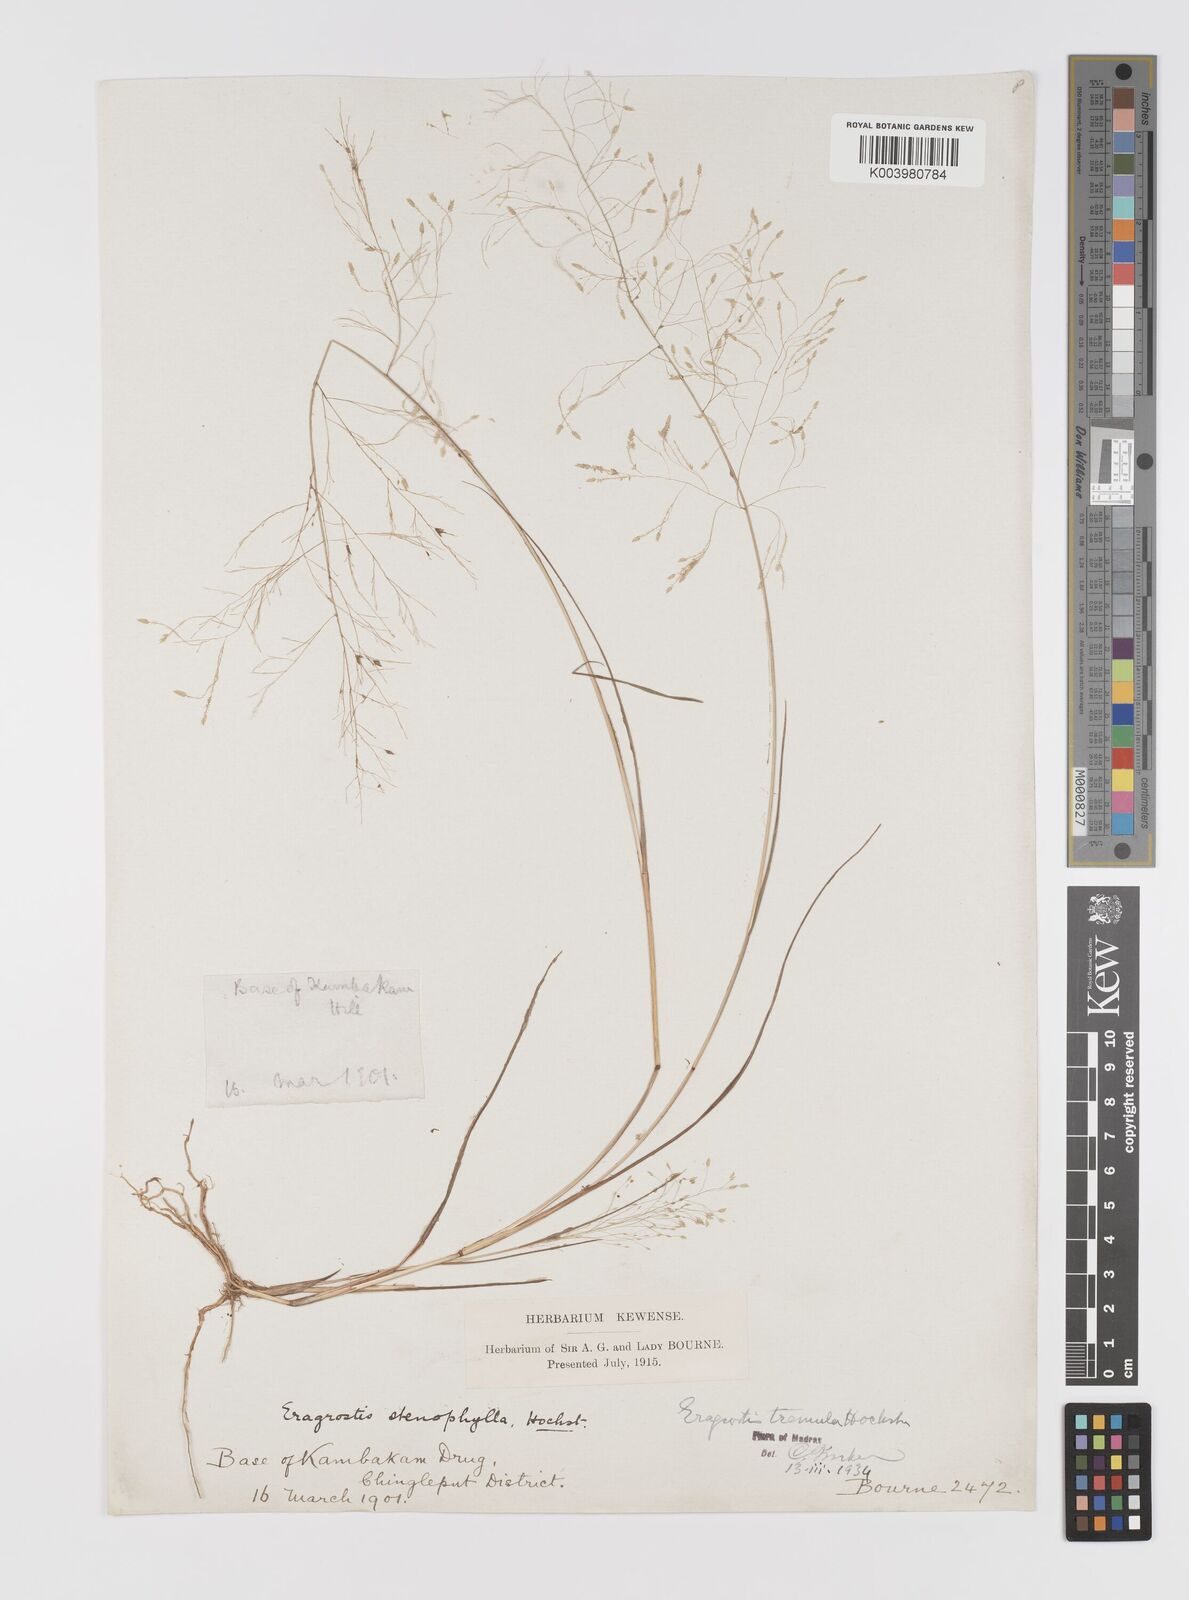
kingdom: Plantae
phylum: Tracheophyta
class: Liliopsida
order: Poales
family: Poaceae
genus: Eragrostis
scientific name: Eragrostis tremula
